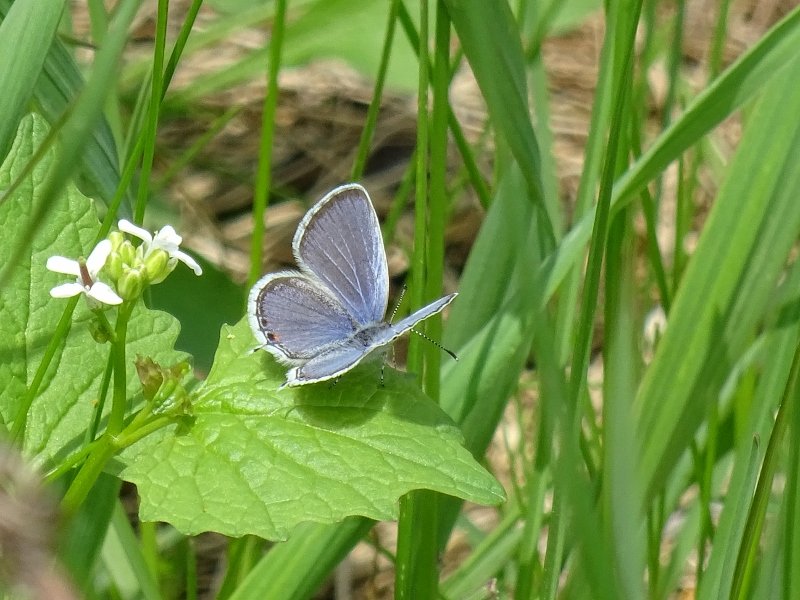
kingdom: Animalia
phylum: Arthropoda
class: Insecta
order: Lepidoptera
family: Lycaenidae
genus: Elkalyce
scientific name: Elkalyce comyntas
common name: Eastern Tailed-Blue
